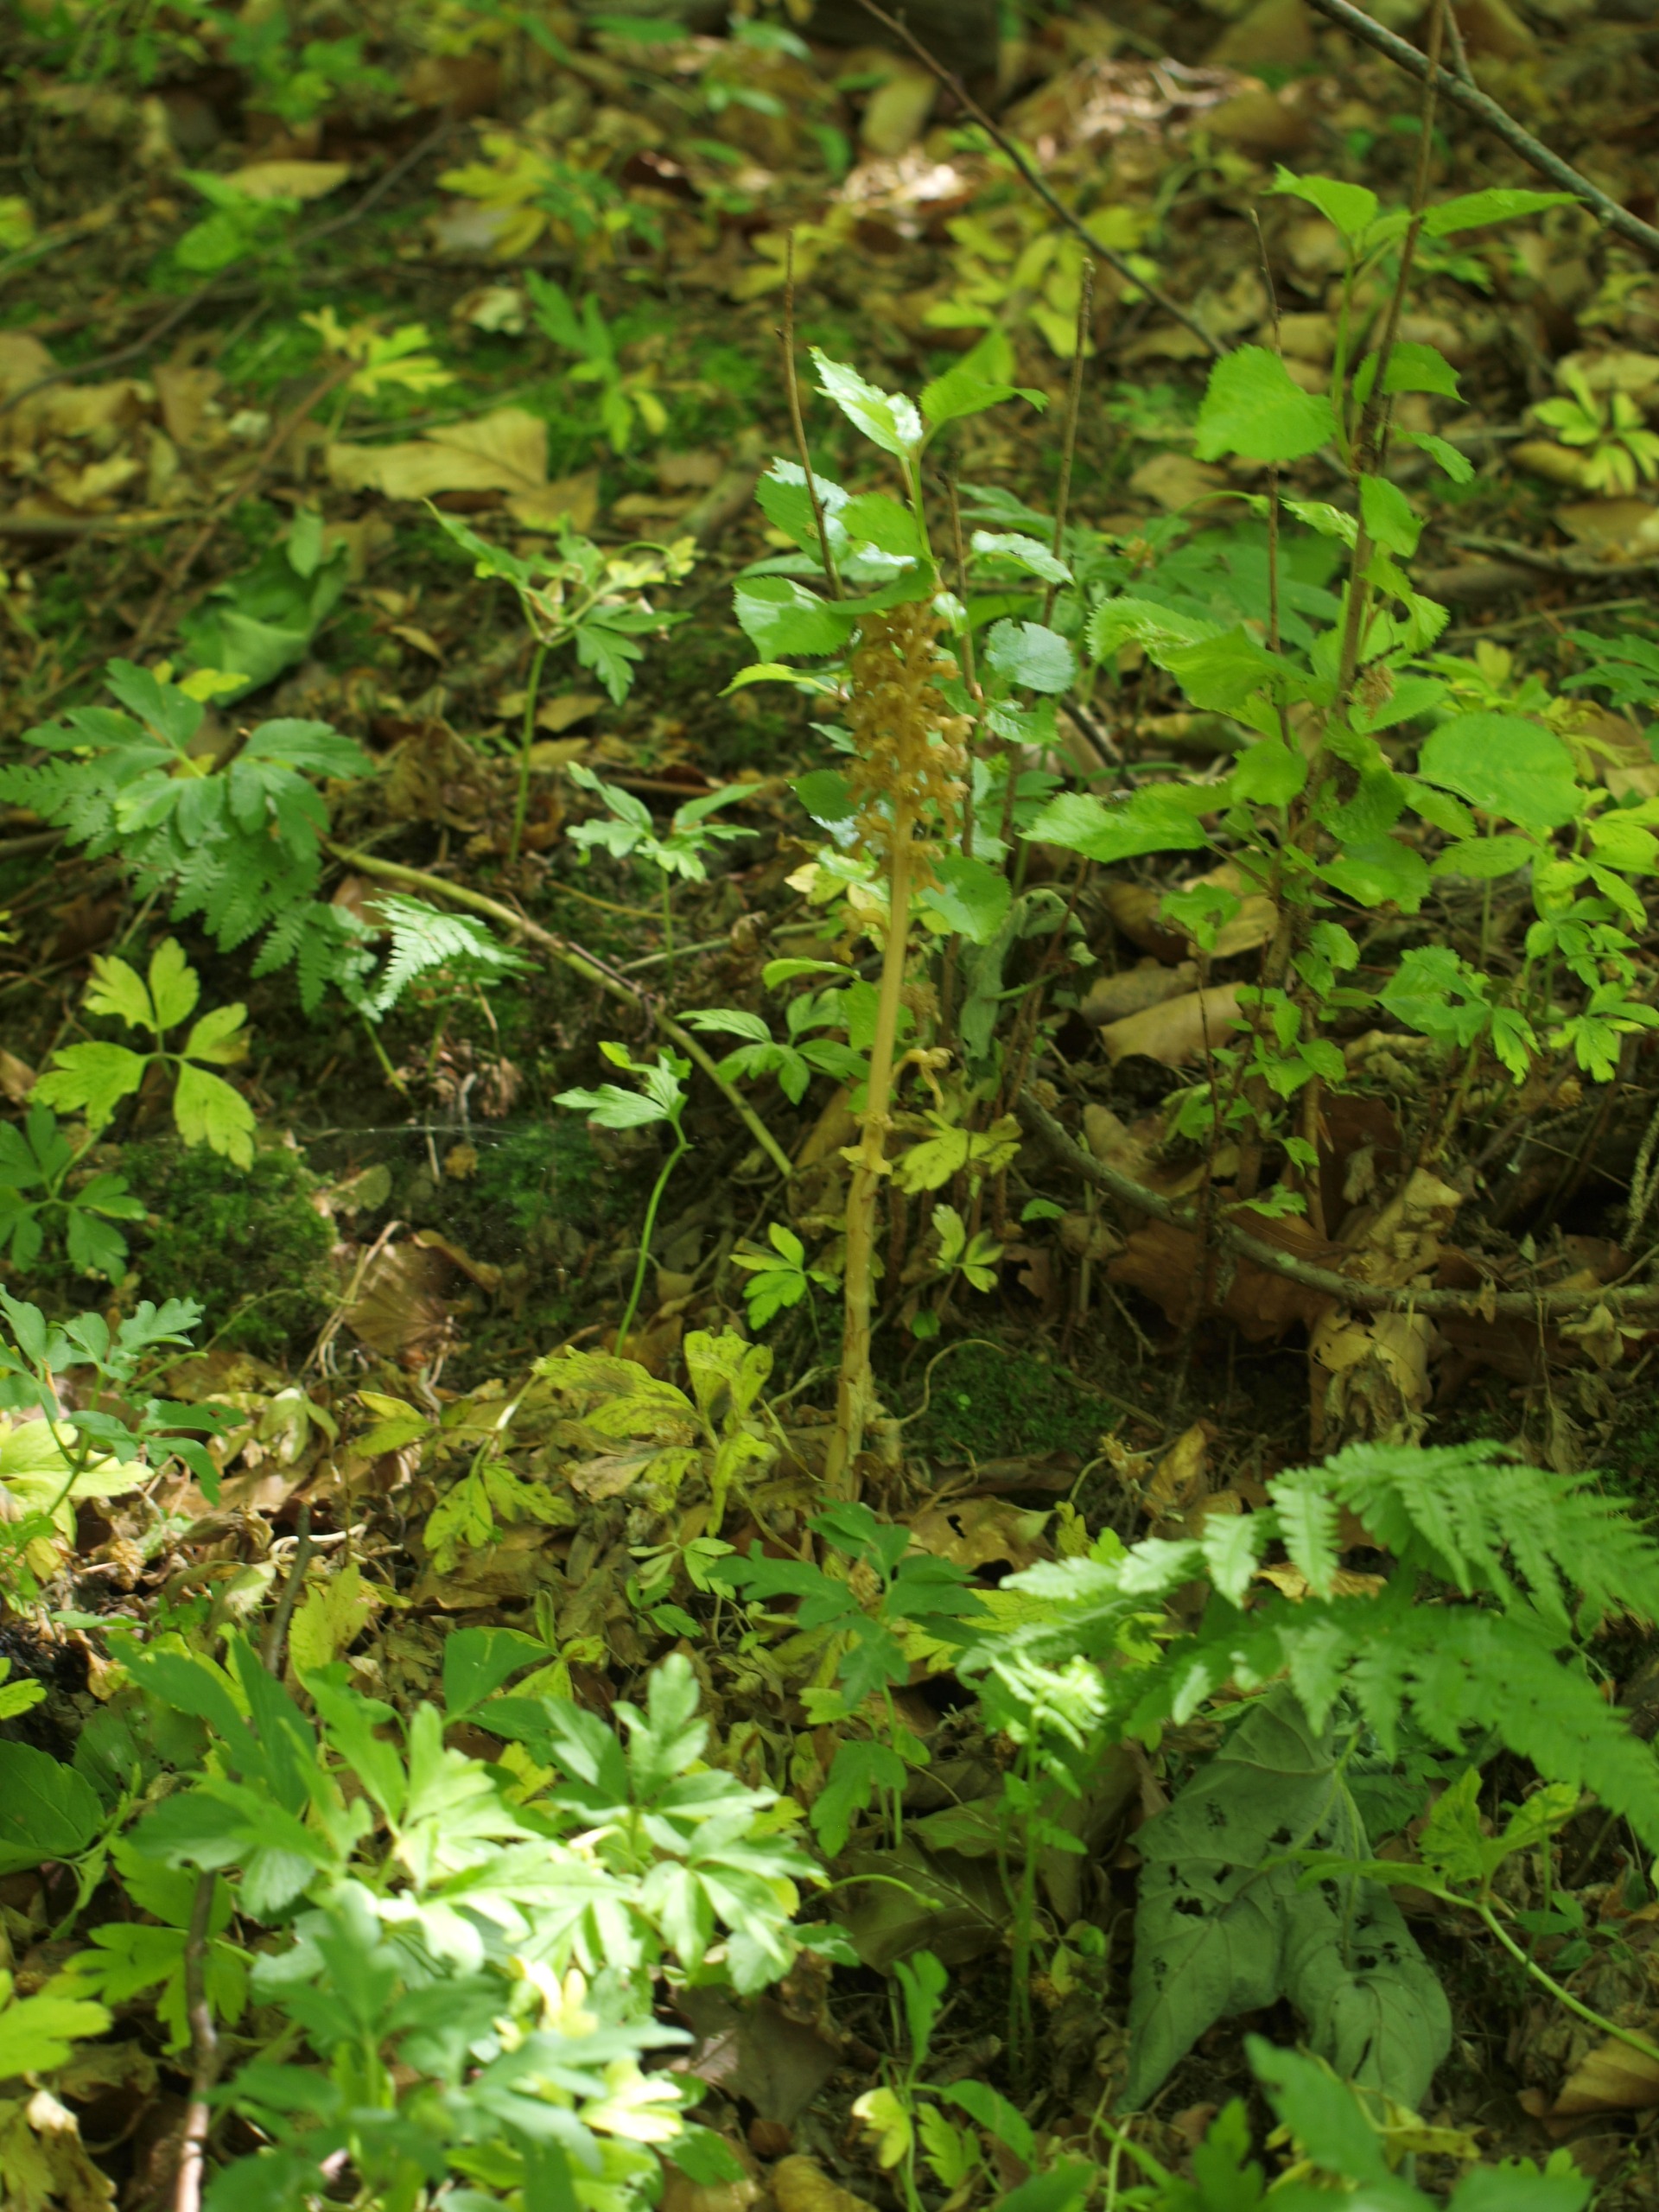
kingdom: Plantae
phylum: Tracheophyta
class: Liliopsida
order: Asparagales
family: Orchidaceae
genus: Neottia
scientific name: Neottia nidus-avis
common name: Rederod
